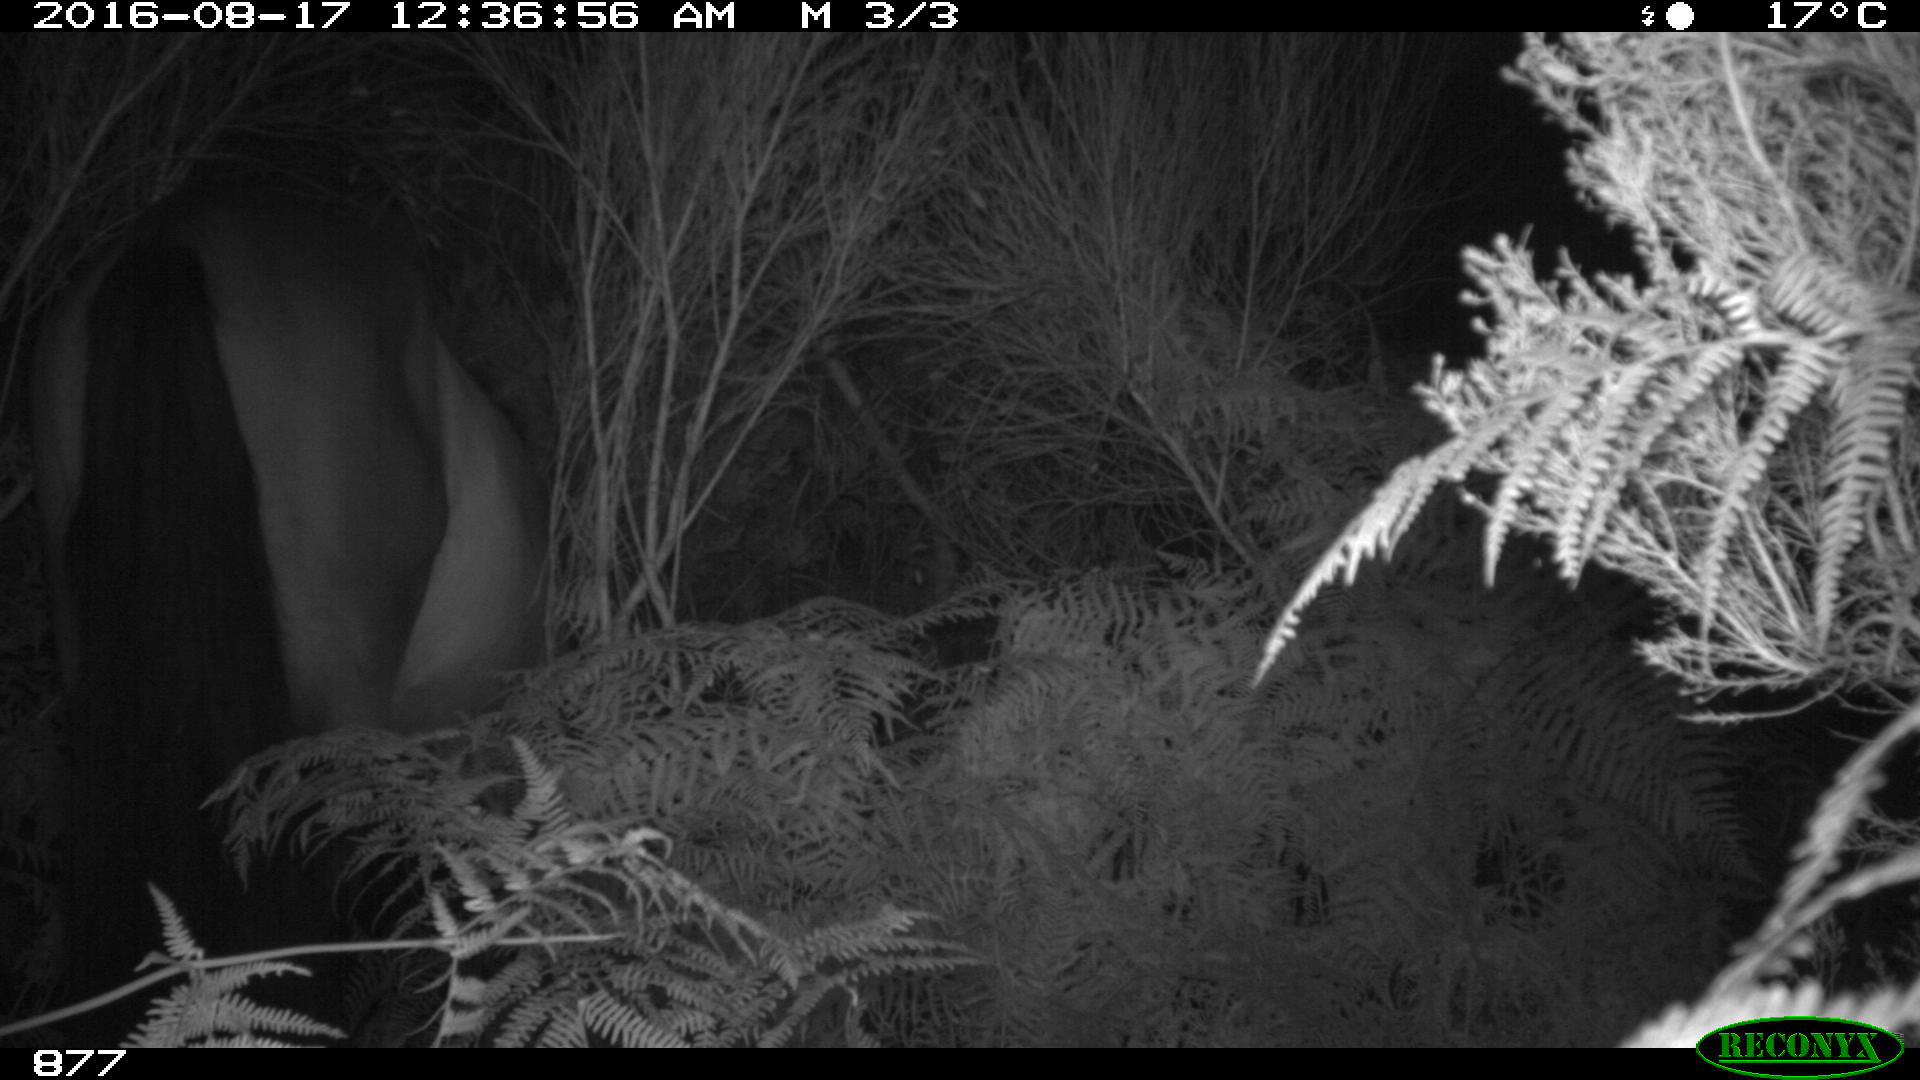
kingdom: Animalia
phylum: Chordata
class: Mammalia
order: Perissodactyla
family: Equidae
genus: Equus
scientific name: Equus caballus
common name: Horse
